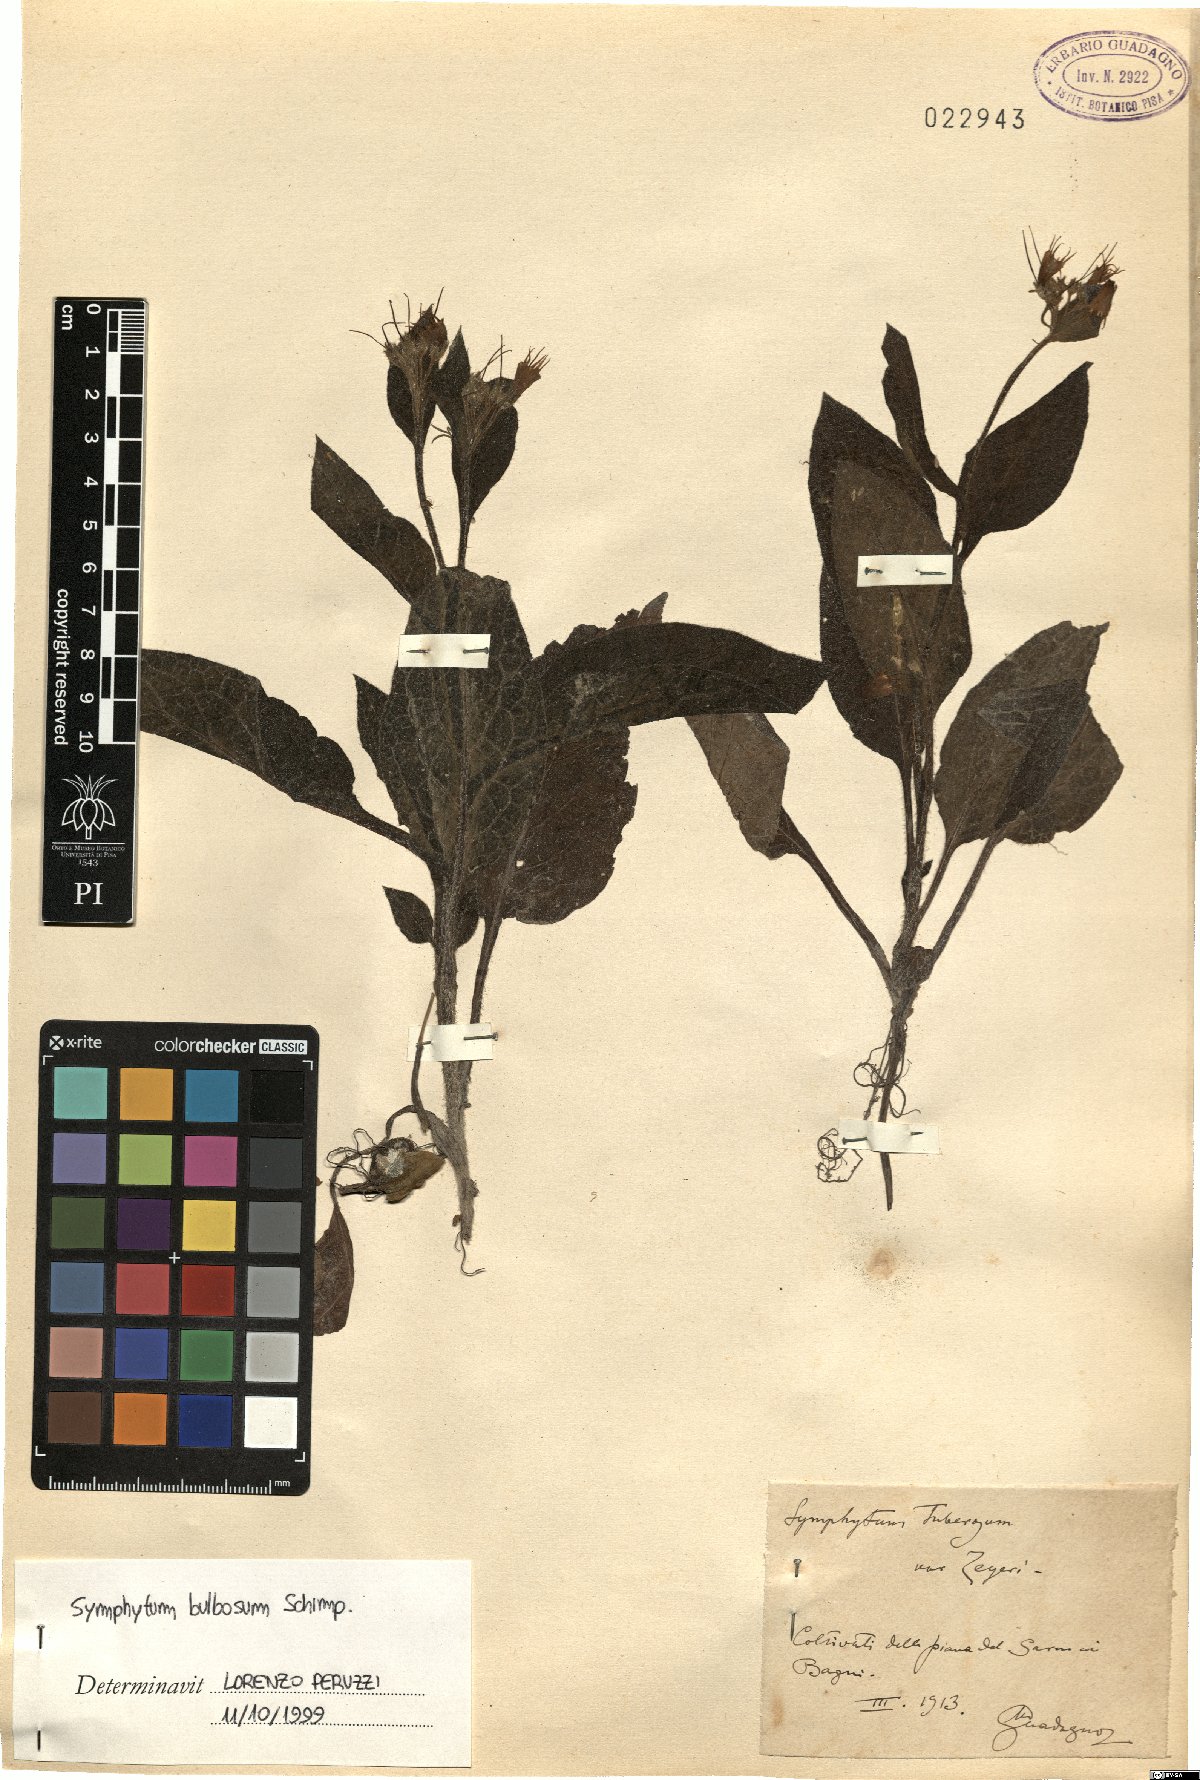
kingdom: Plantae
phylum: Tracheophyta
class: Magnoliopsida
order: Boraginales
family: Boraginaceae
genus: Symphytum
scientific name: Symphytum bulbosum
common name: Bulbous comfrey
